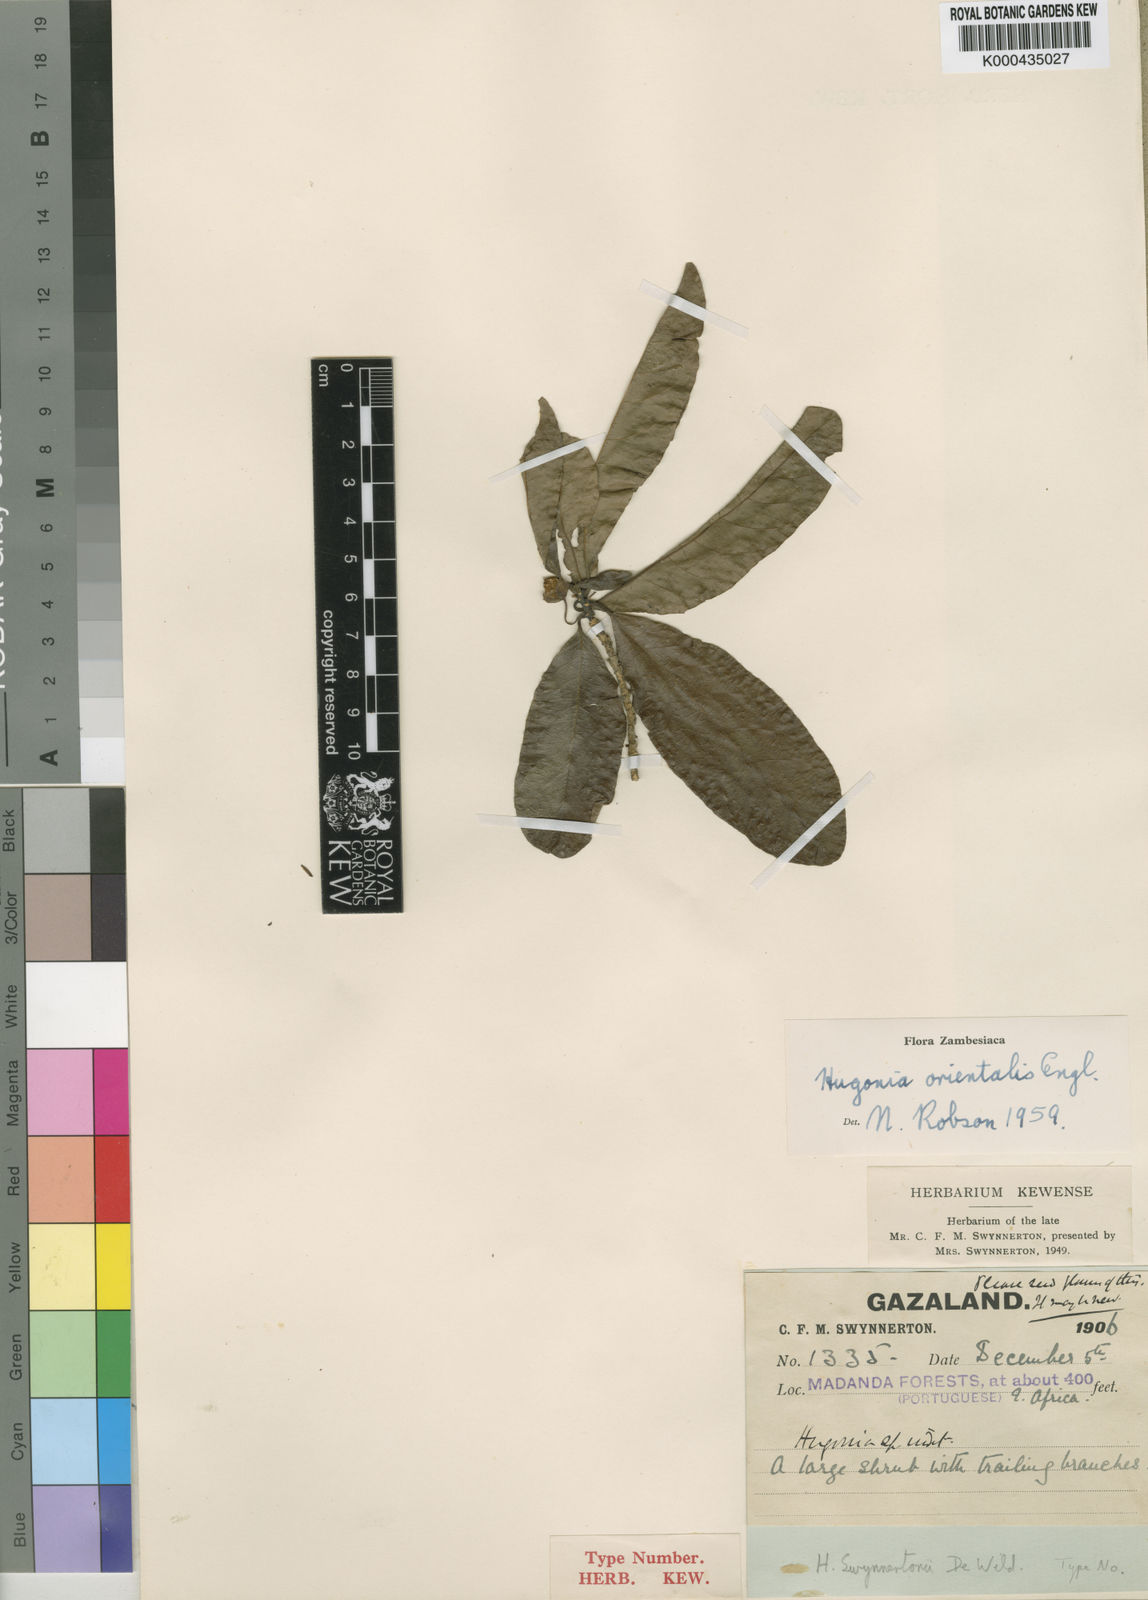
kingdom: Plantae
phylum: Tracheophyta
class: Magnoliopsida
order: Malpighiales
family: Linaceae
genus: Hugonia
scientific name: Hugonia orientalis
